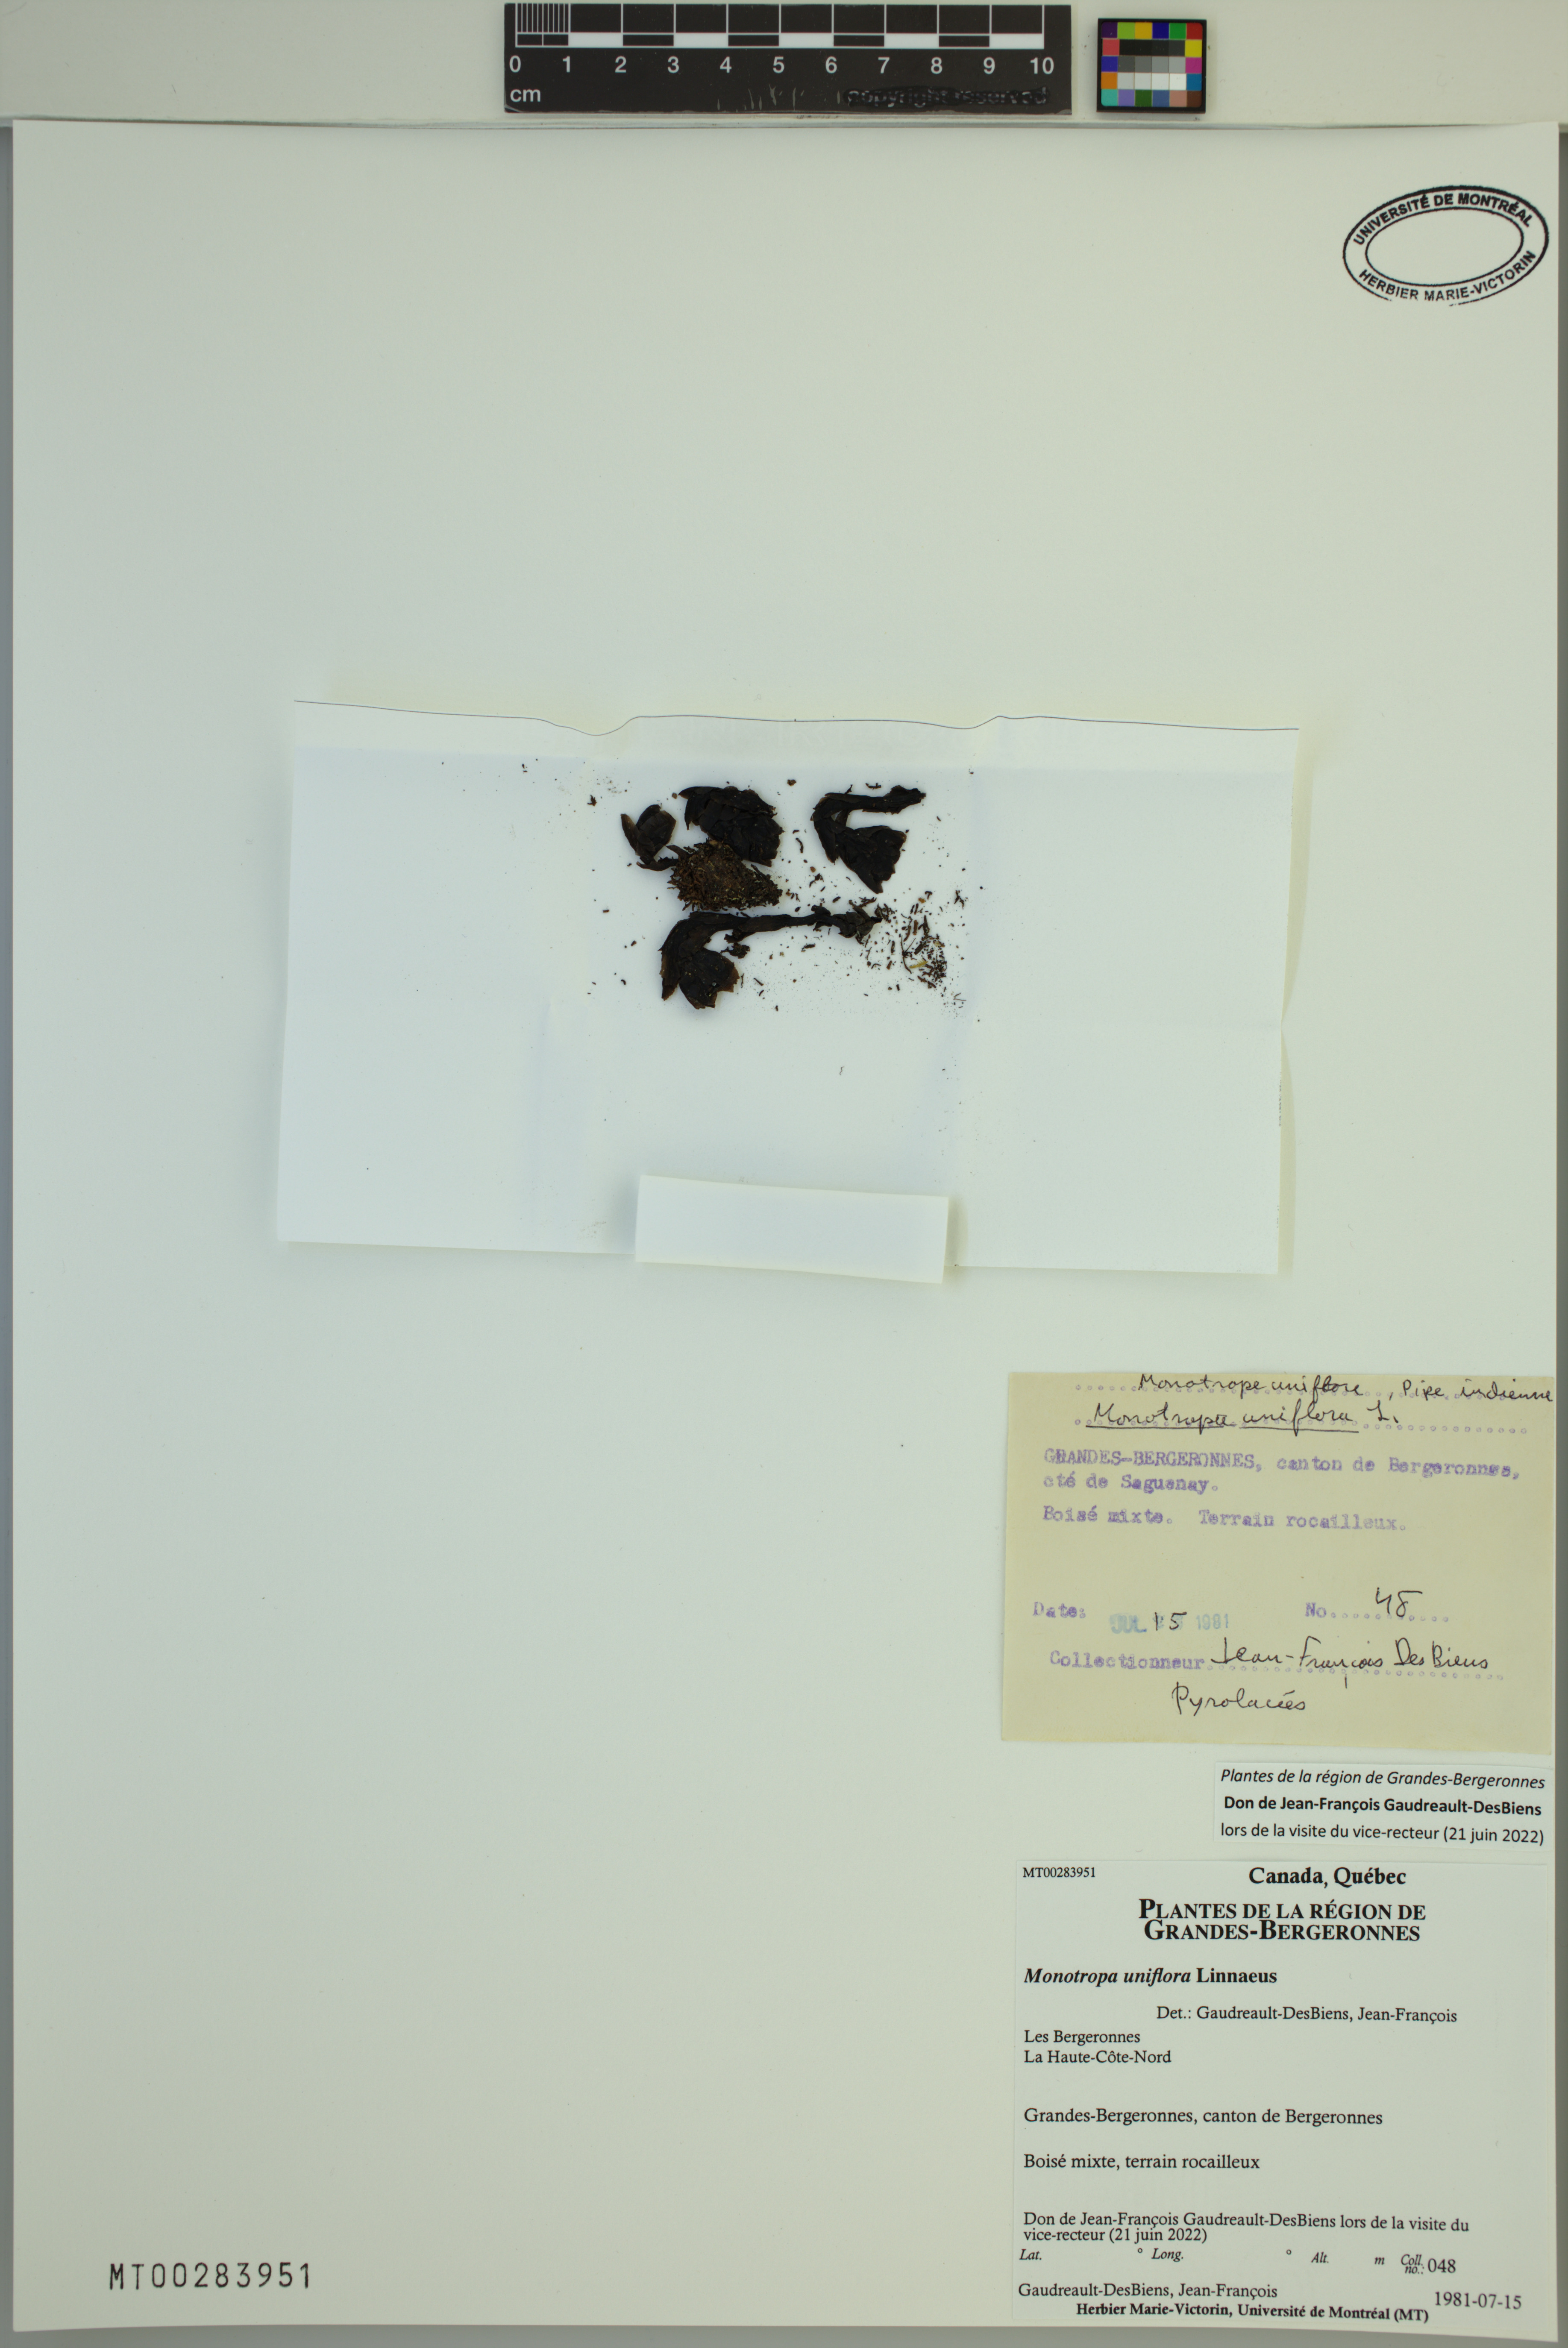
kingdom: Plantae
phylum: Tracheophyta
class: Magnoliopsida
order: Ericales
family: Ericaceae
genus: Monotropa
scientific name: Monotropa uniflora
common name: Convulsion root
